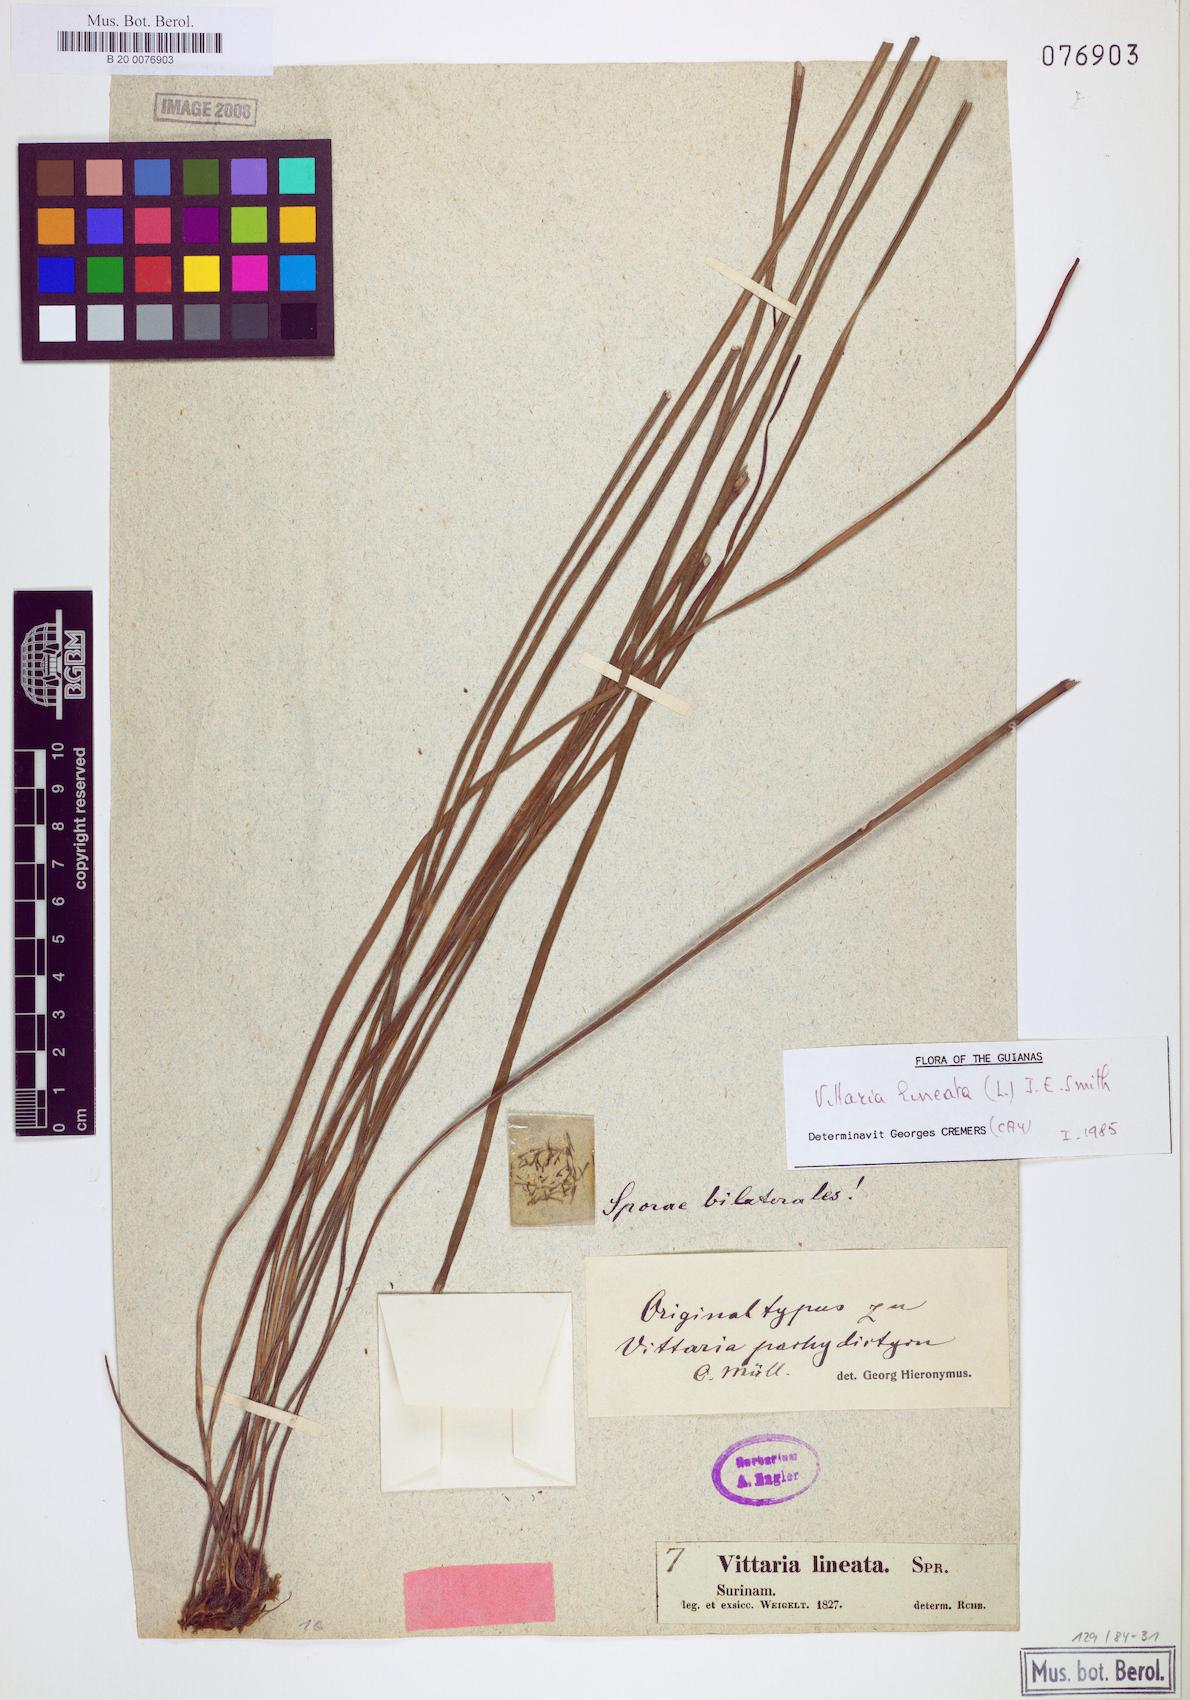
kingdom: Plantae
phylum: Tracheophyta
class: Polypodiopsida
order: Polypodiales
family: Pteridaceae
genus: Vittaria
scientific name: Vittaria lineata
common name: Shoestring fern
